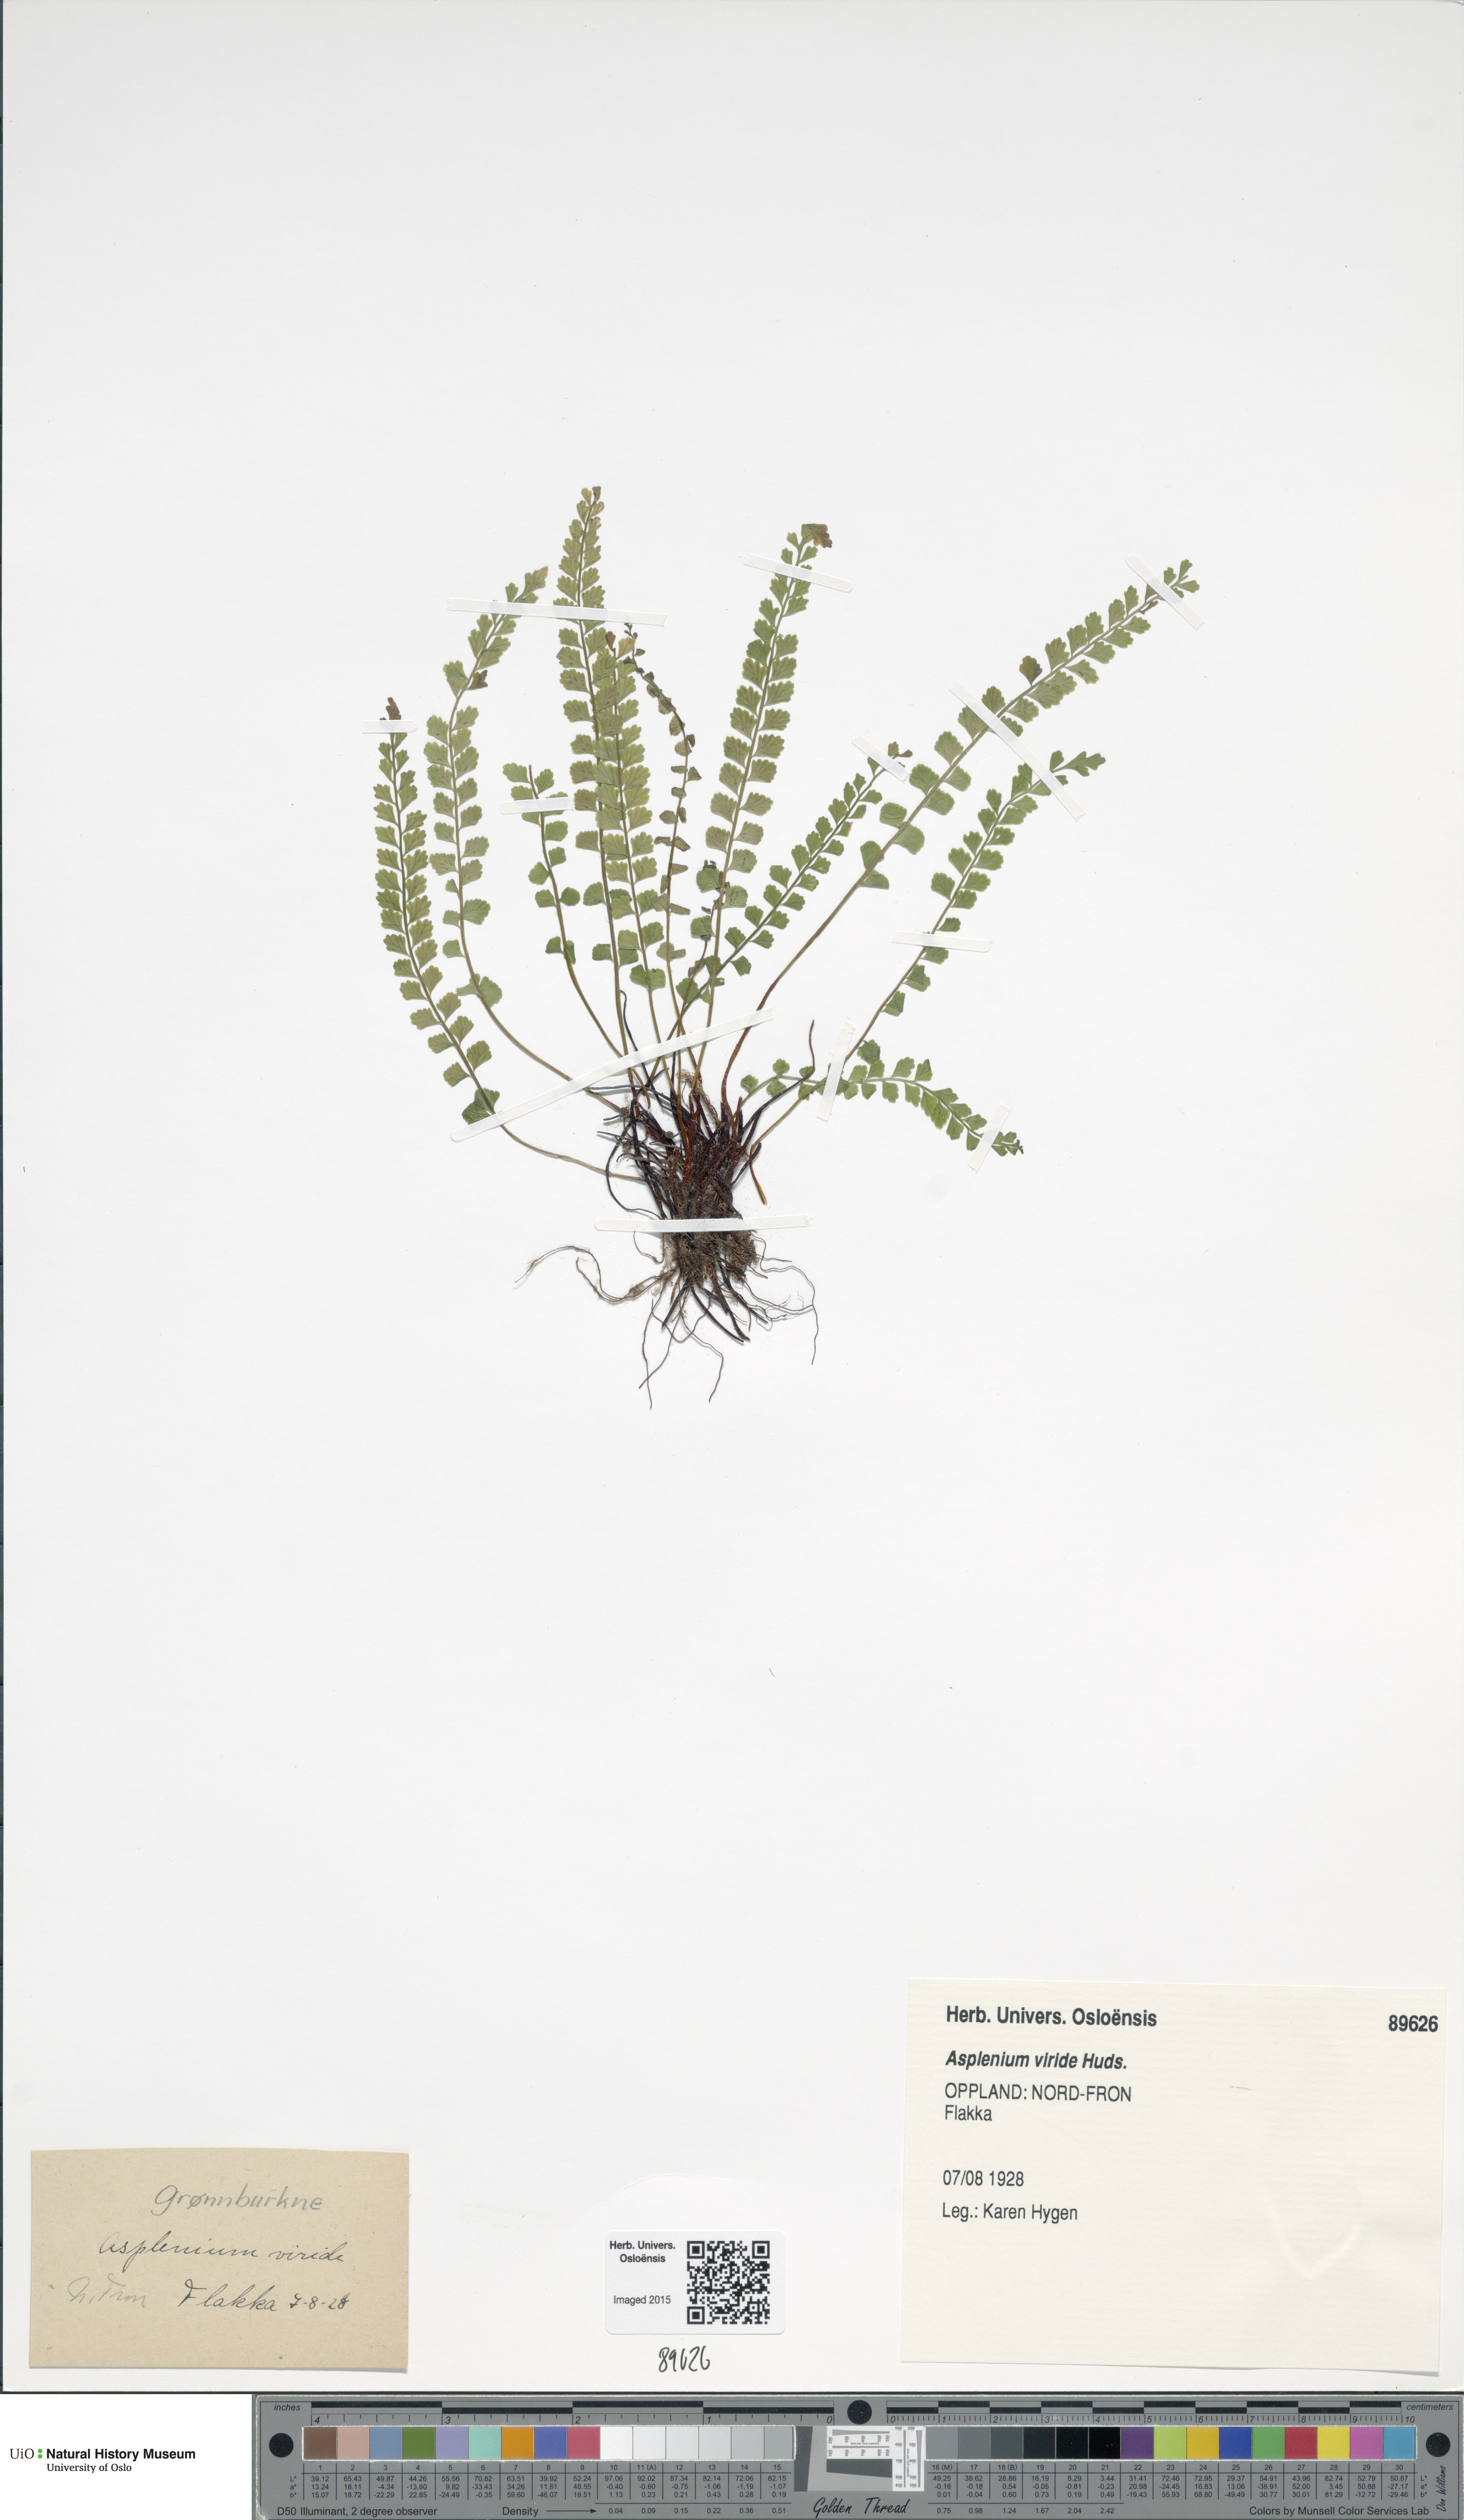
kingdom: Plantae
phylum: Tracheophyta
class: Polypodiopsida
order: Polypodiales
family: Aspleniaceae
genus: Asplenium
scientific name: Asplenium viride
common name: Green spleenwort
